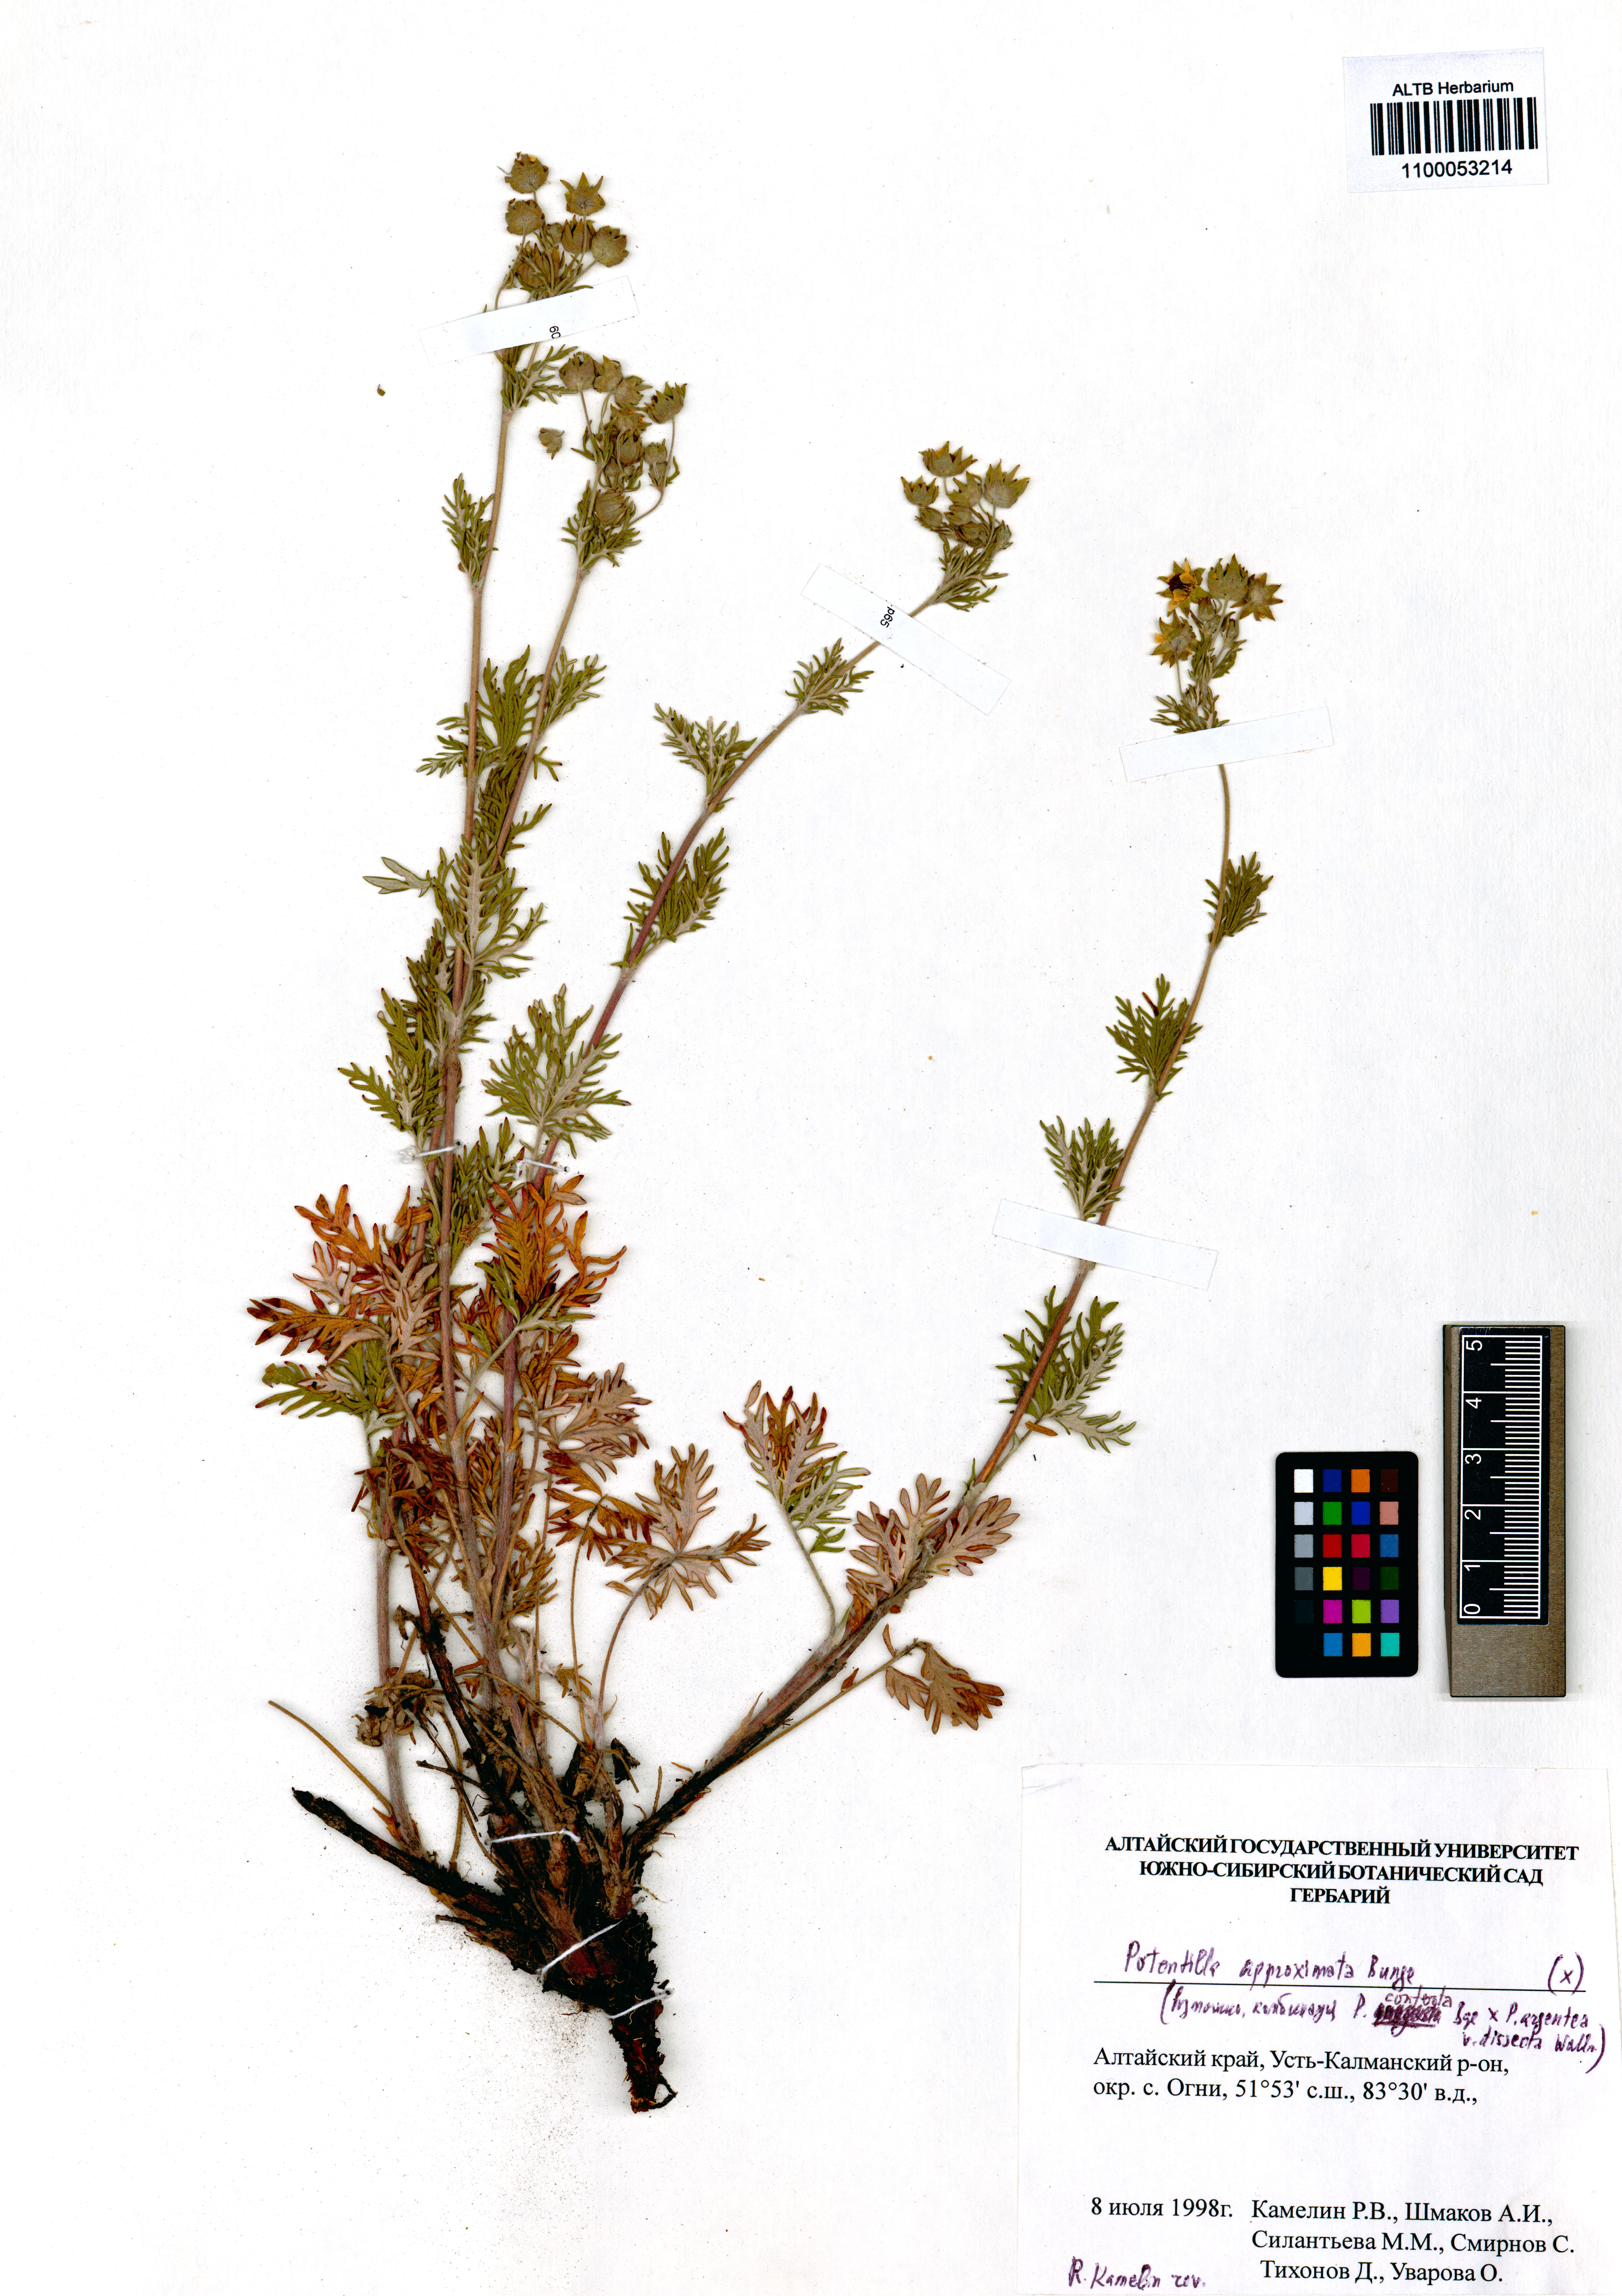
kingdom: Plantae
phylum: Tracheophyta
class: Magnoliopsida
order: Rosales
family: Rosaceae
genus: Potentilla
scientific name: Potentilla conferta
